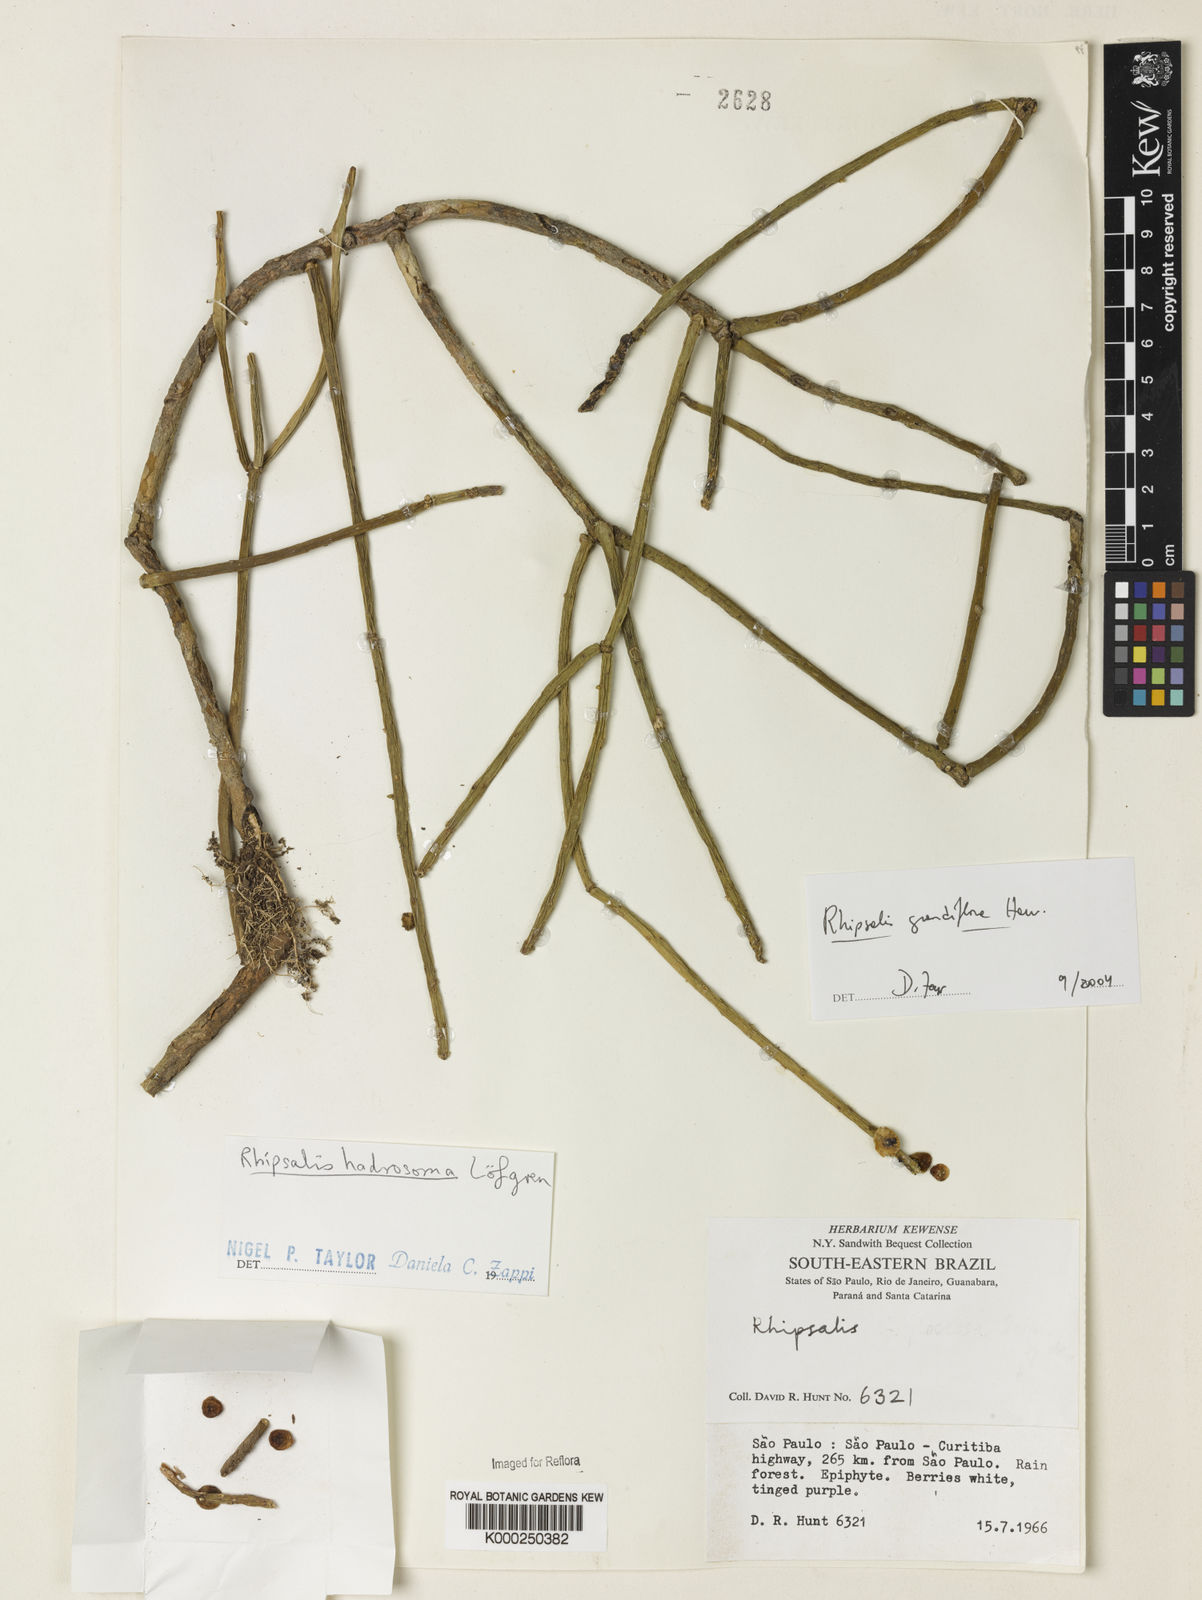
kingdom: Plantae
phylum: Tracheophyta
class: Magnoliopsida
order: Caryophyllales
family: Cactaceae
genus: Rhipsalis
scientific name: Rhipsalis grandiflora
